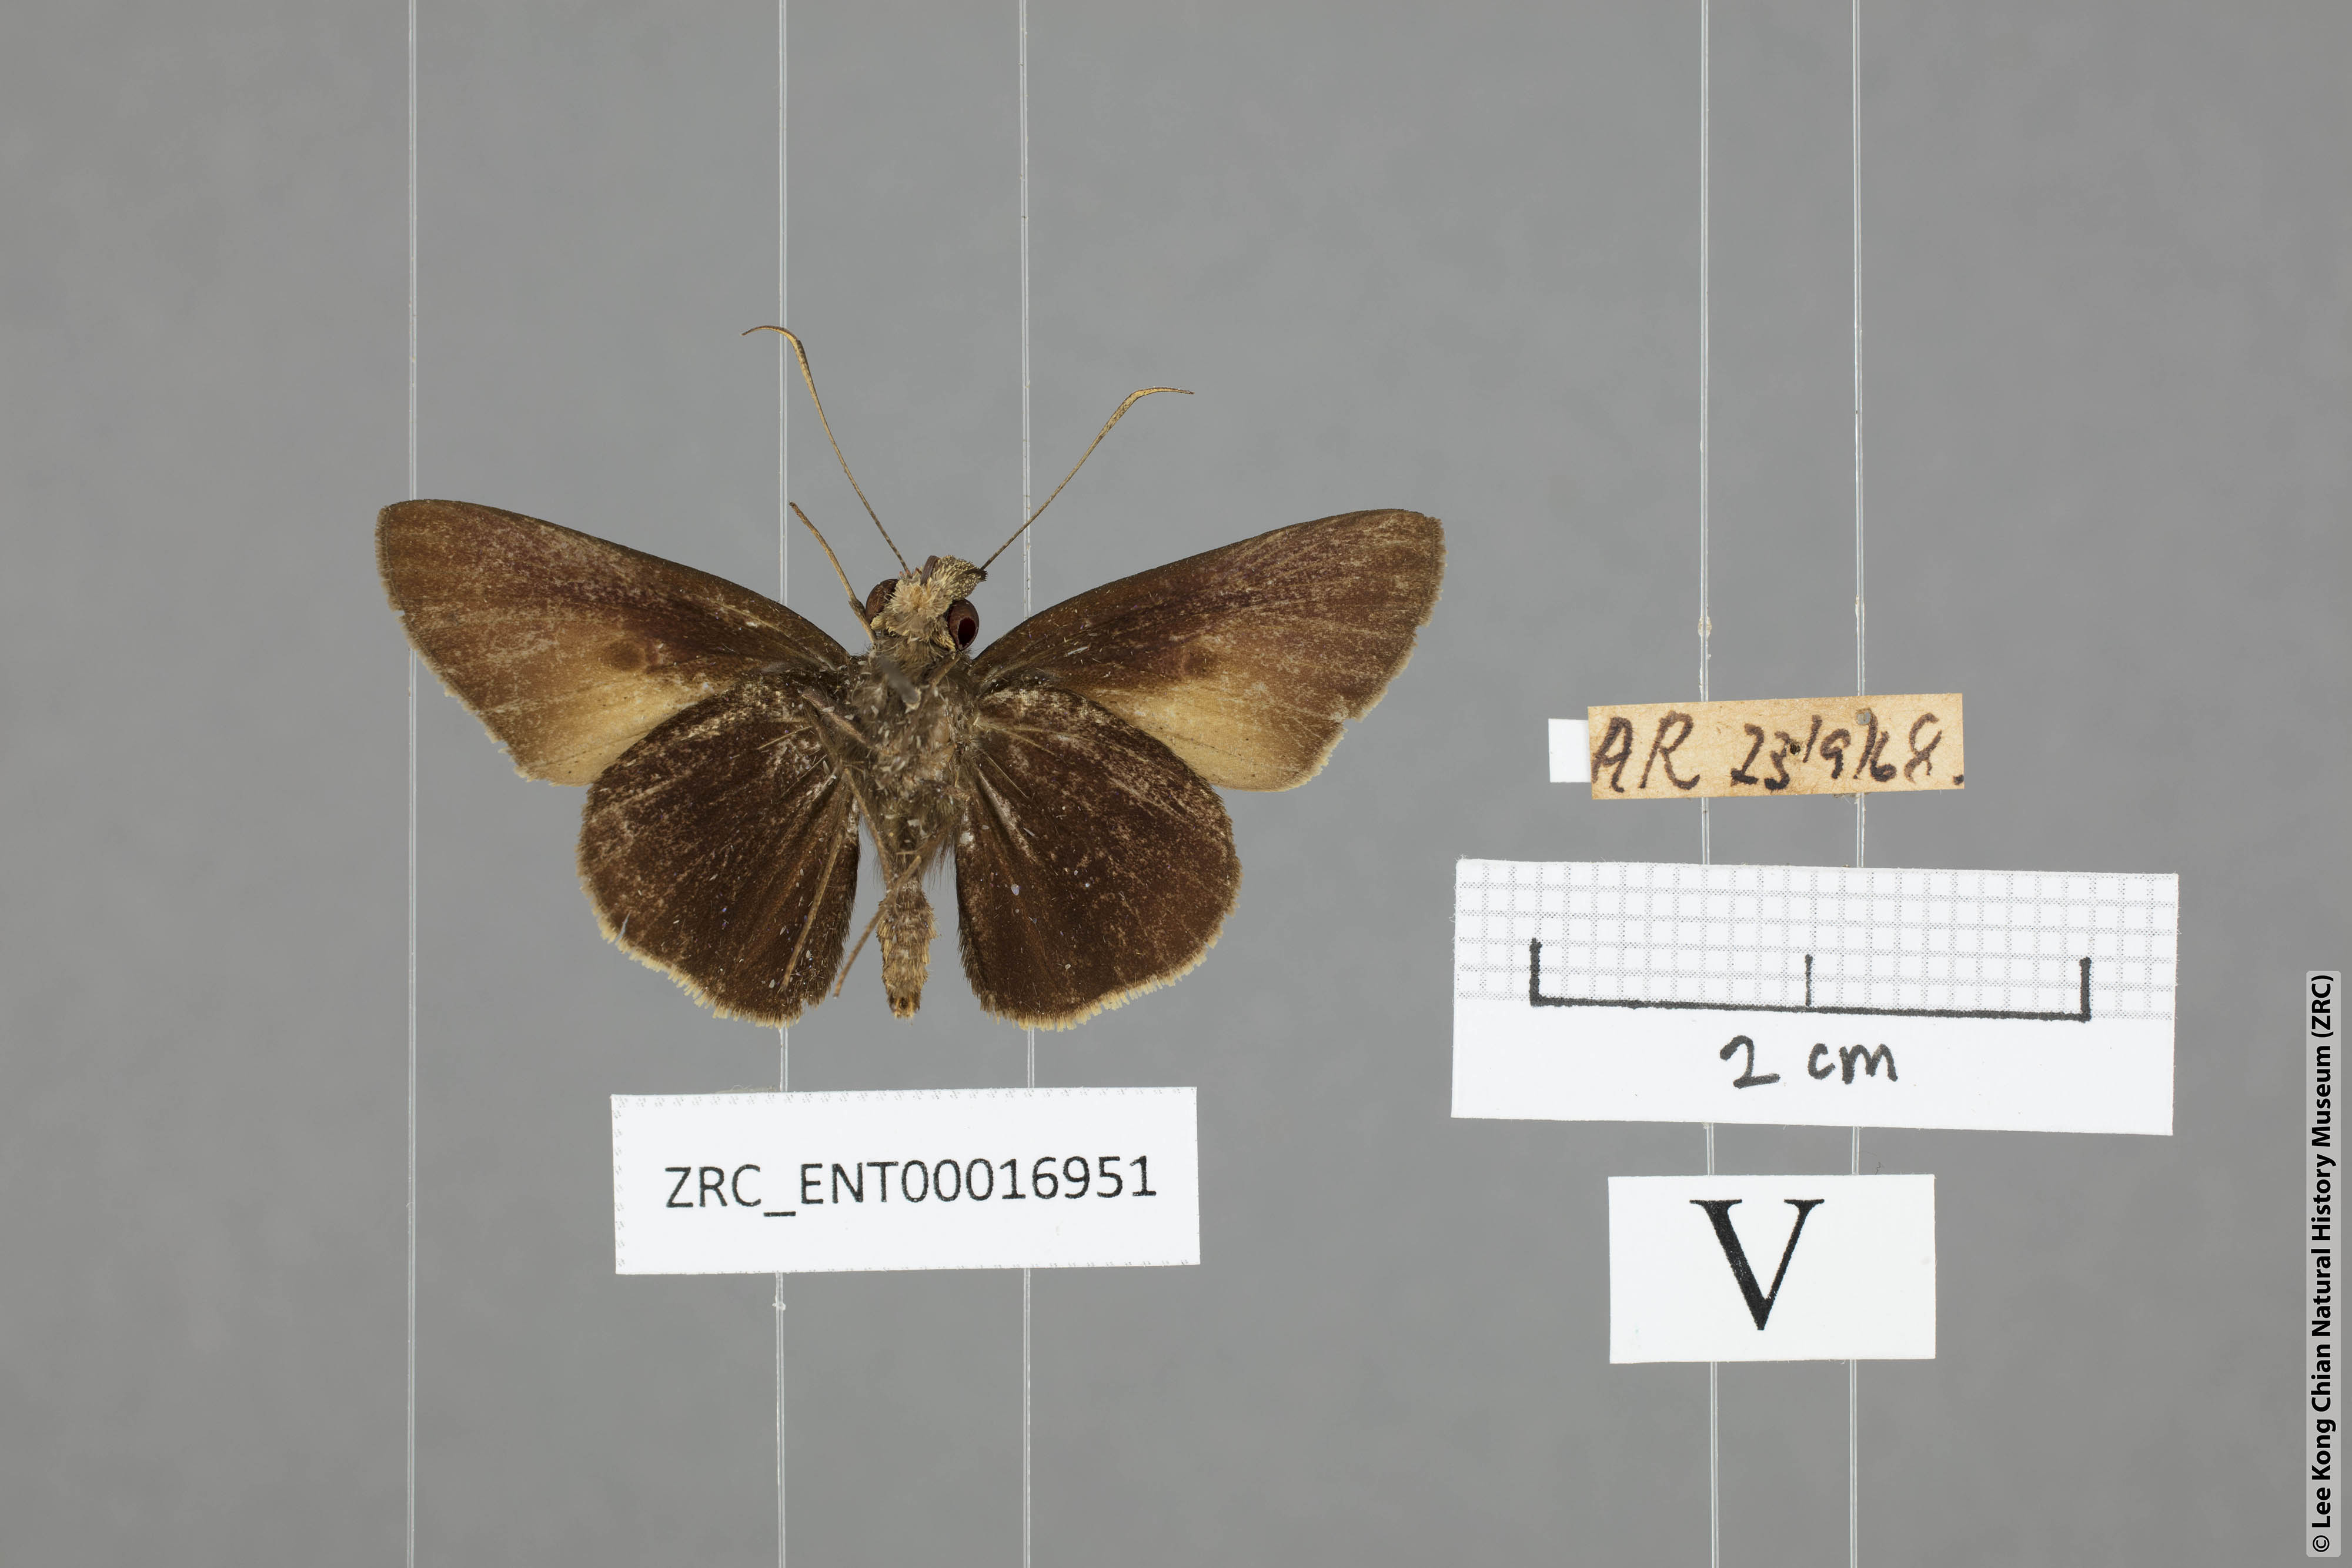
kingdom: Animalia
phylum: Arthropoda
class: Insecta
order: Lepidoptera
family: Hesperiidae
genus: Ge
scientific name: Ge
